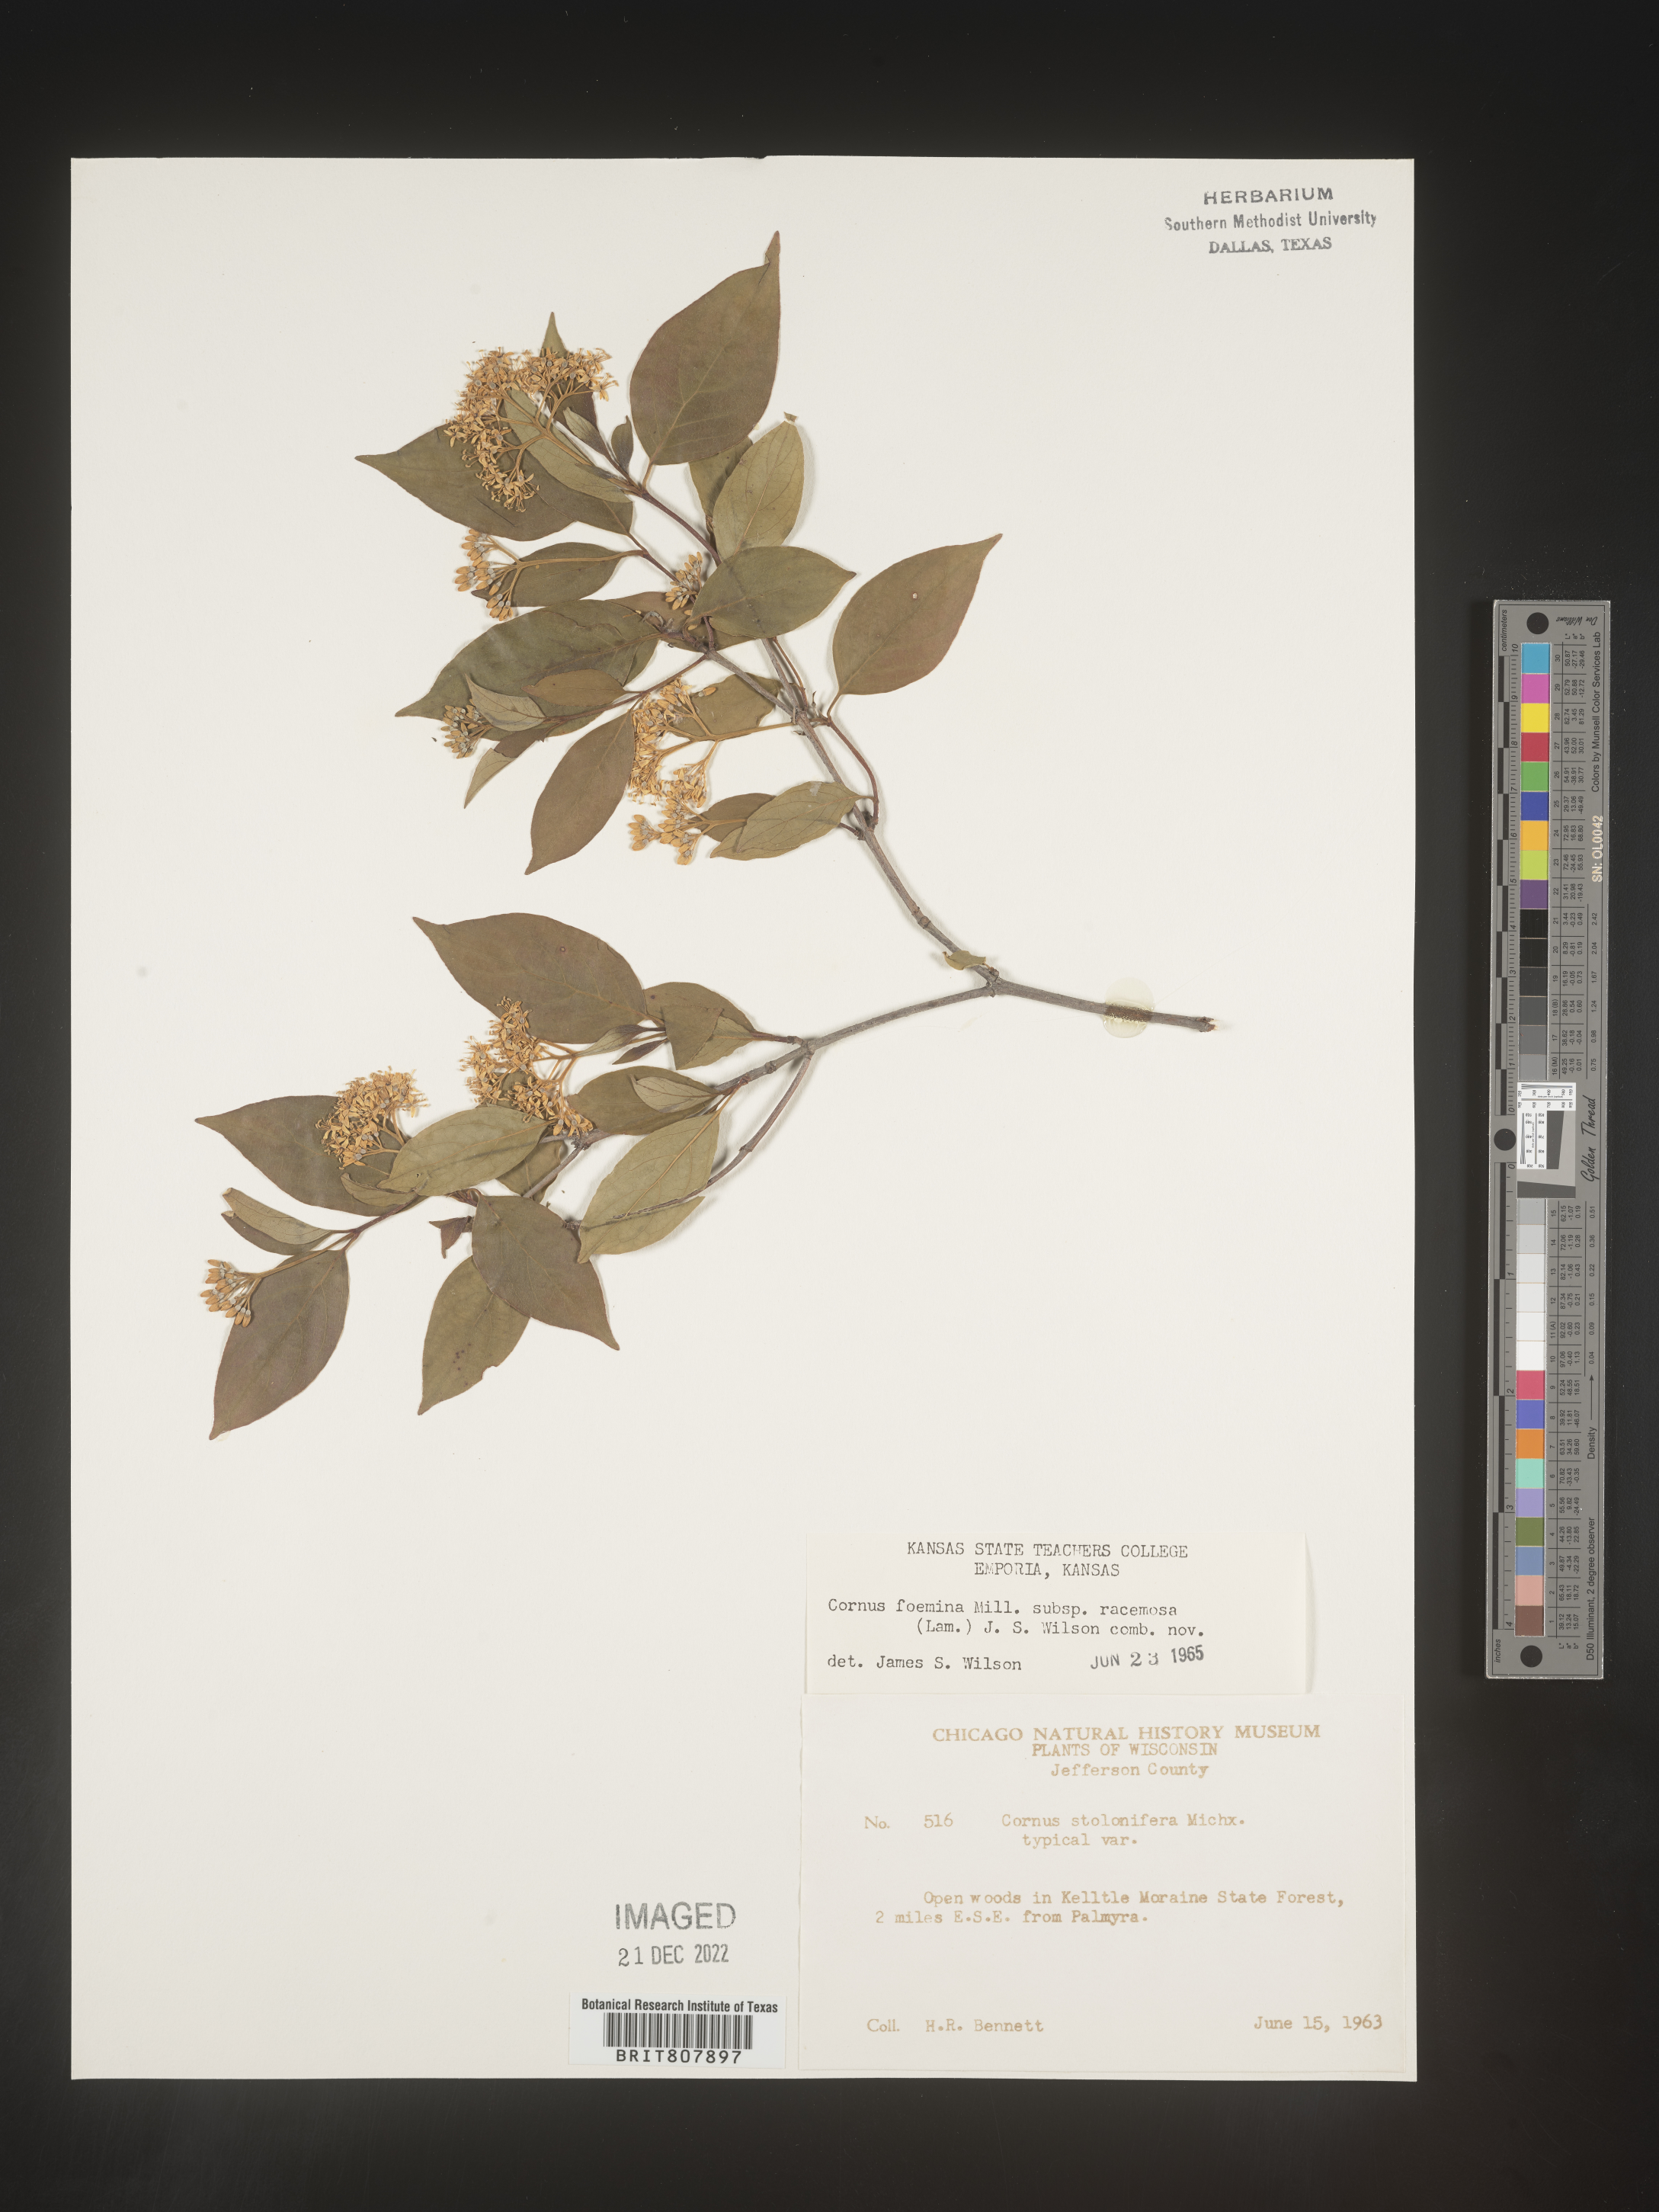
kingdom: Plantae
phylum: Tracheophyta
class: Magnoliopsida
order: Cornales
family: Cornaceae
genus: Cornus
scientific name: Cornus racemosa
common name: Panicled dogwood
